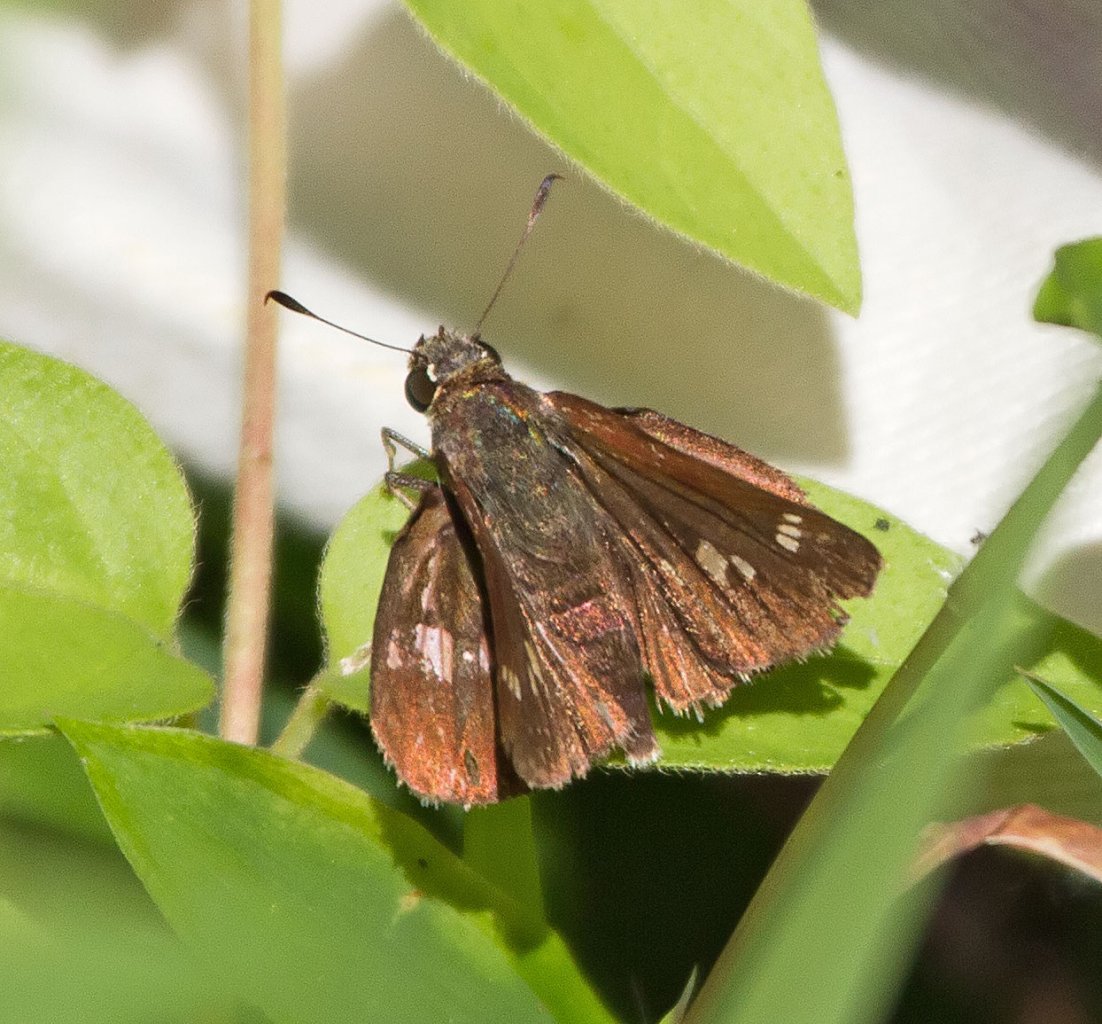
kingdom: Animalia
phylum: Arthropoda
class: Insecta
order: Lepidoptera
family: Hesperiidae
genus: Vernia
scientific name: Vernia verna
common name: Little Glassywing
